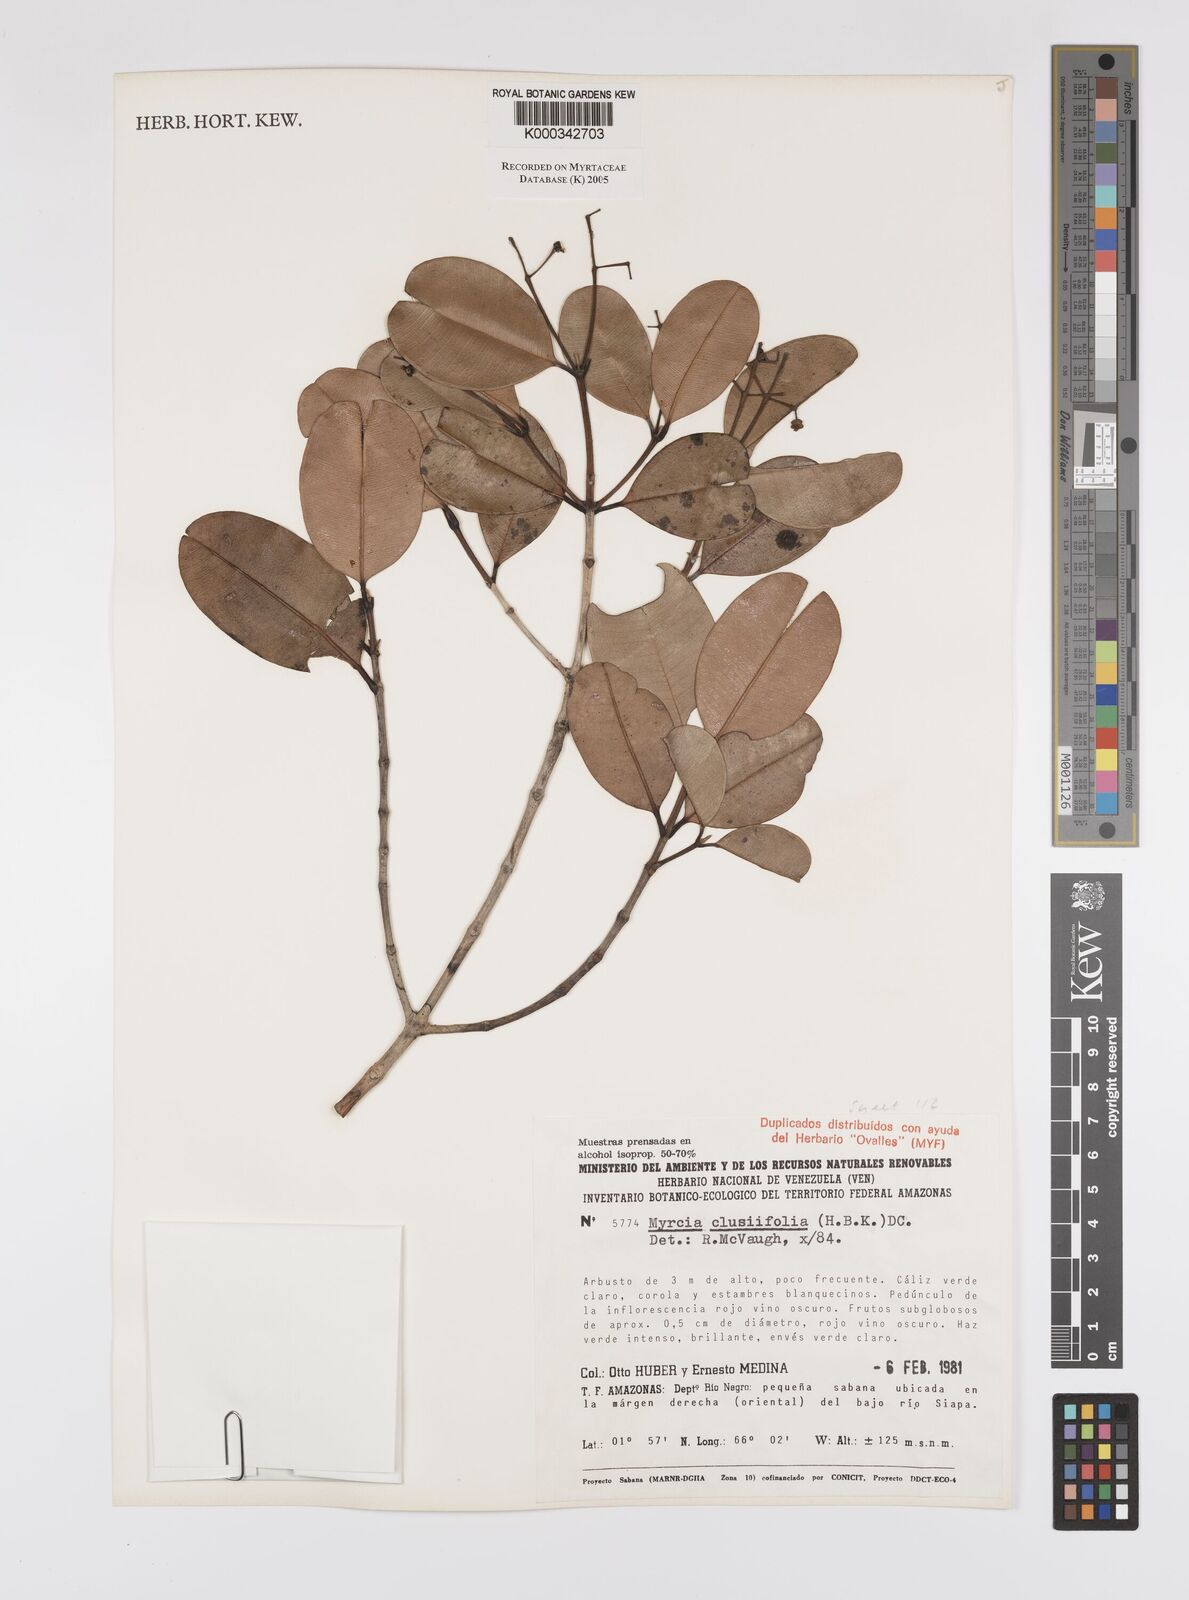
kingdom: Plantae
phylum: Tracheophyta
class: Magnoliopsida
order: Myrtales
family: Myrtaceae
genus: Myrcia
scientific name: Myrcia clusiifolia
